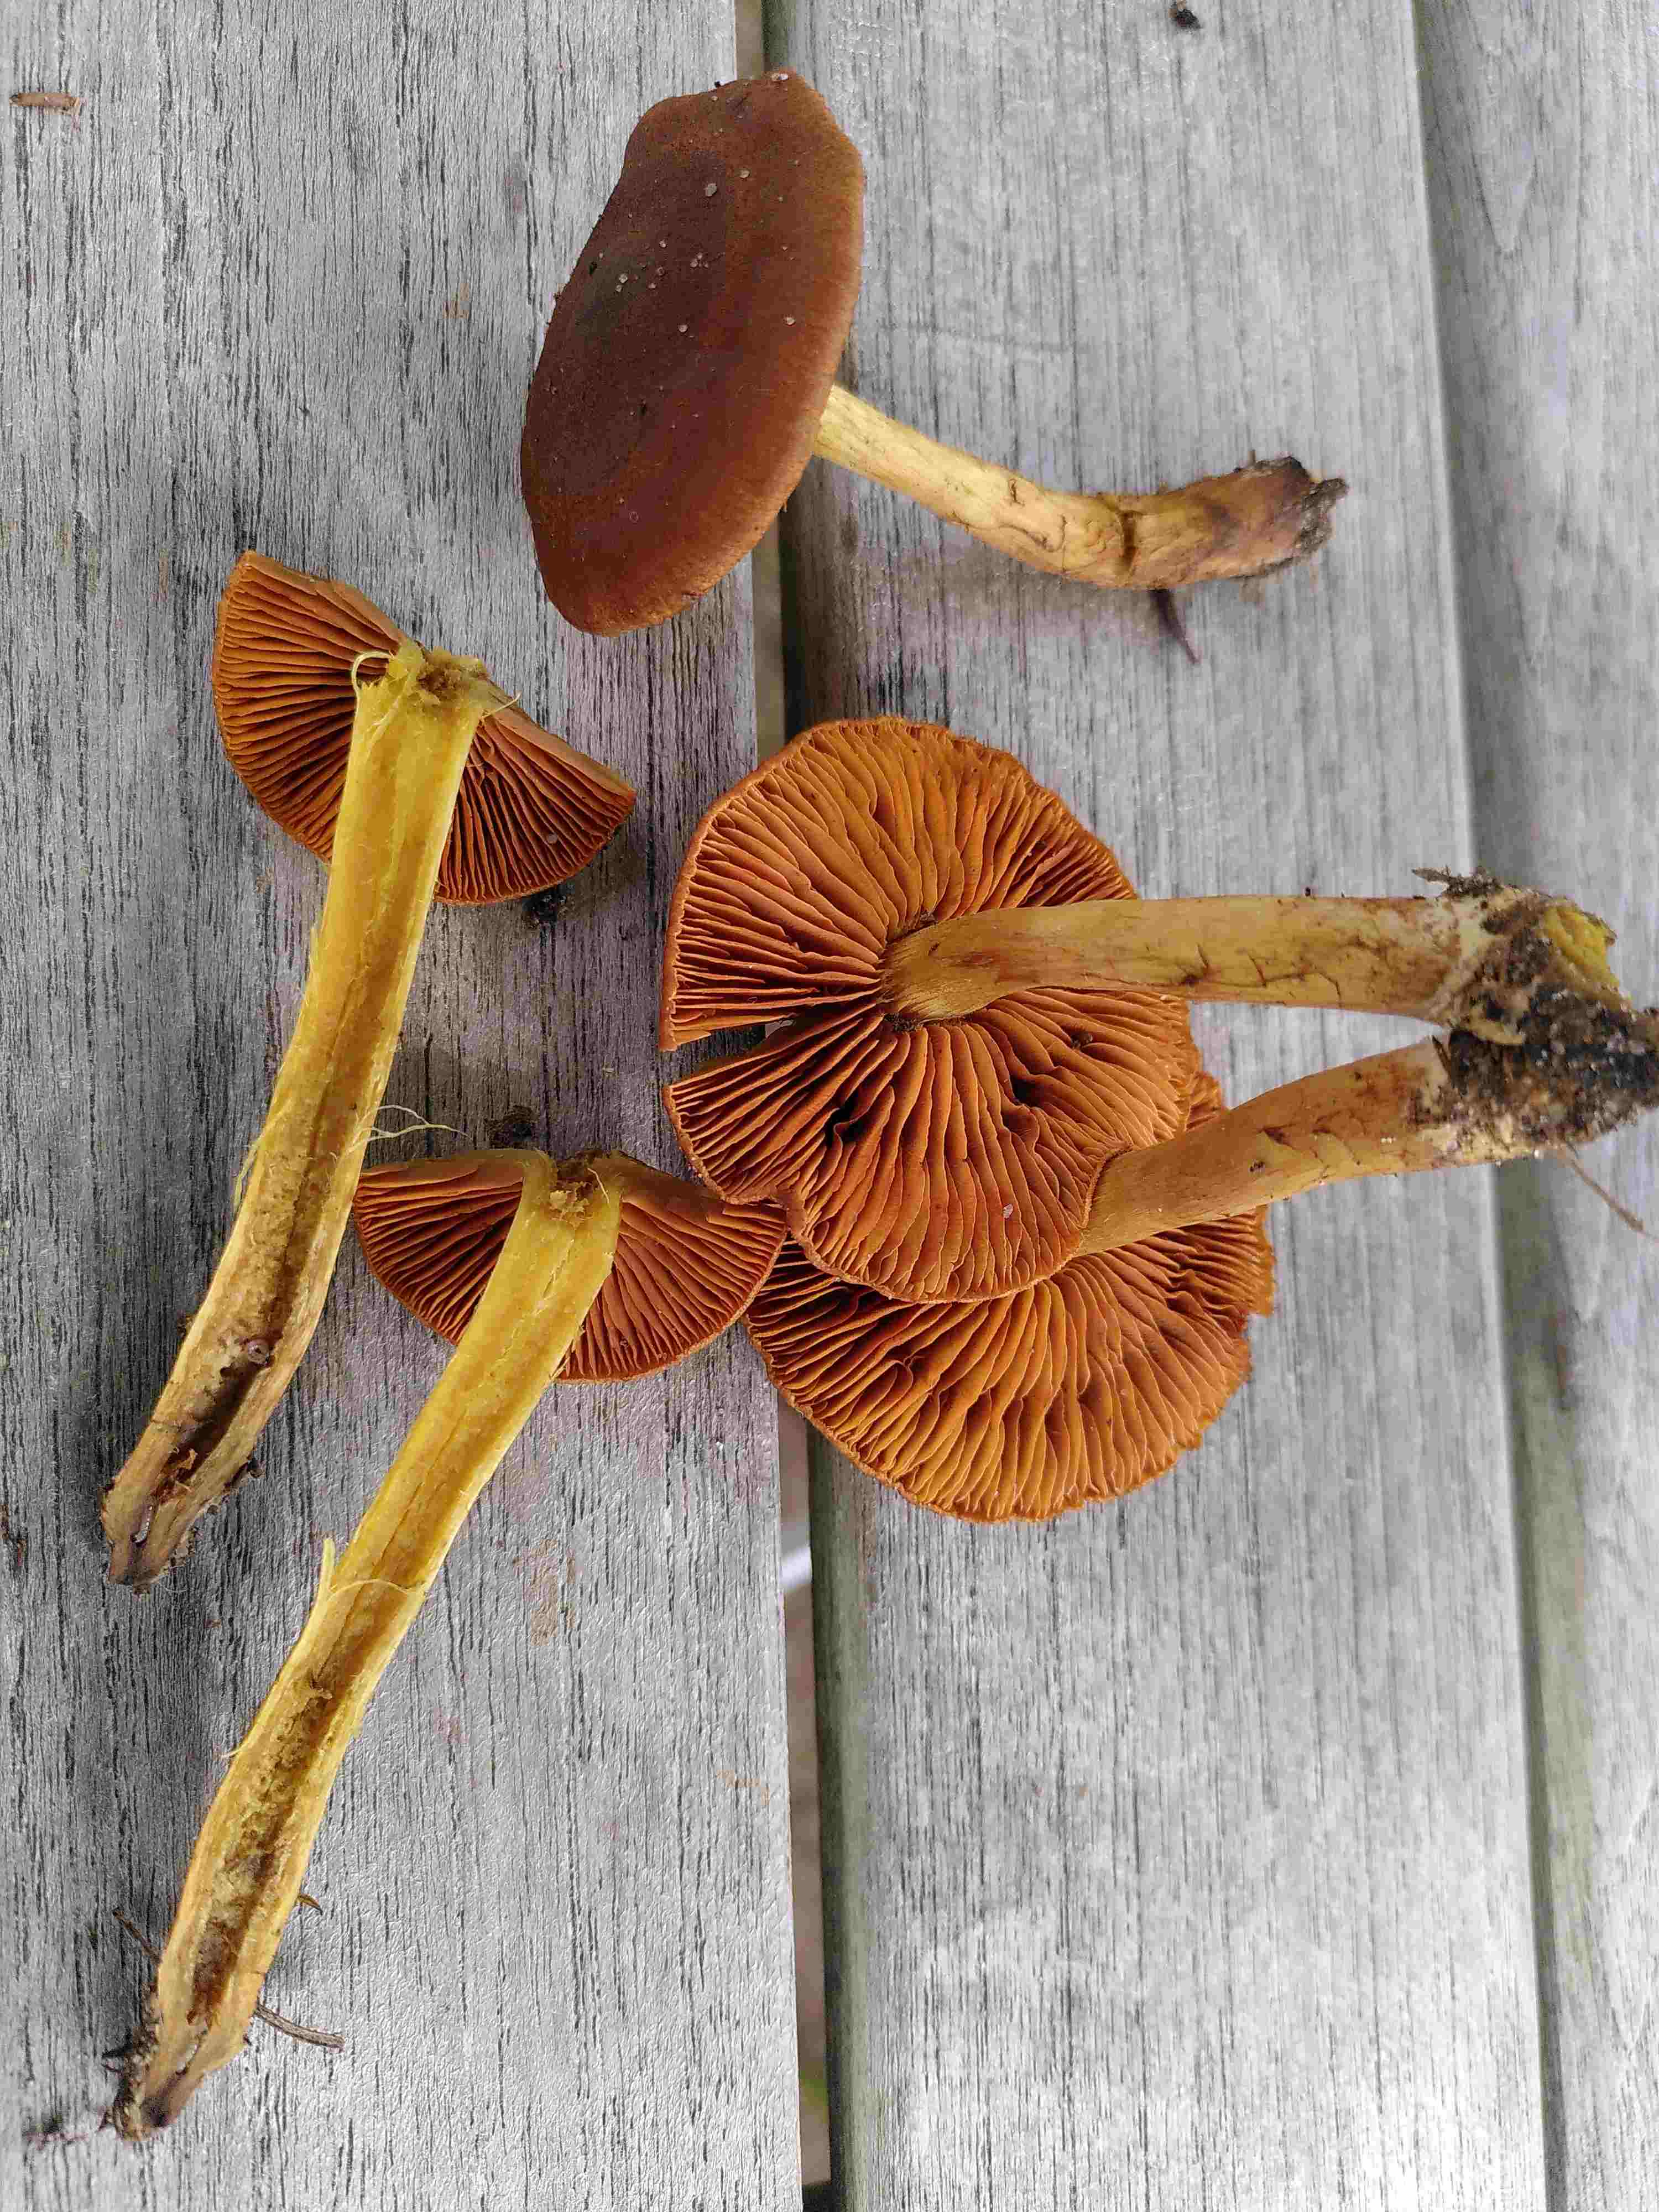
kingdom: Fungi
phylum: Basidiomycota
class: Agaricomycetes
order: Agaricales
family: Cortinariaceae
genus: Cortinarius
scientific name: Cortinarius
